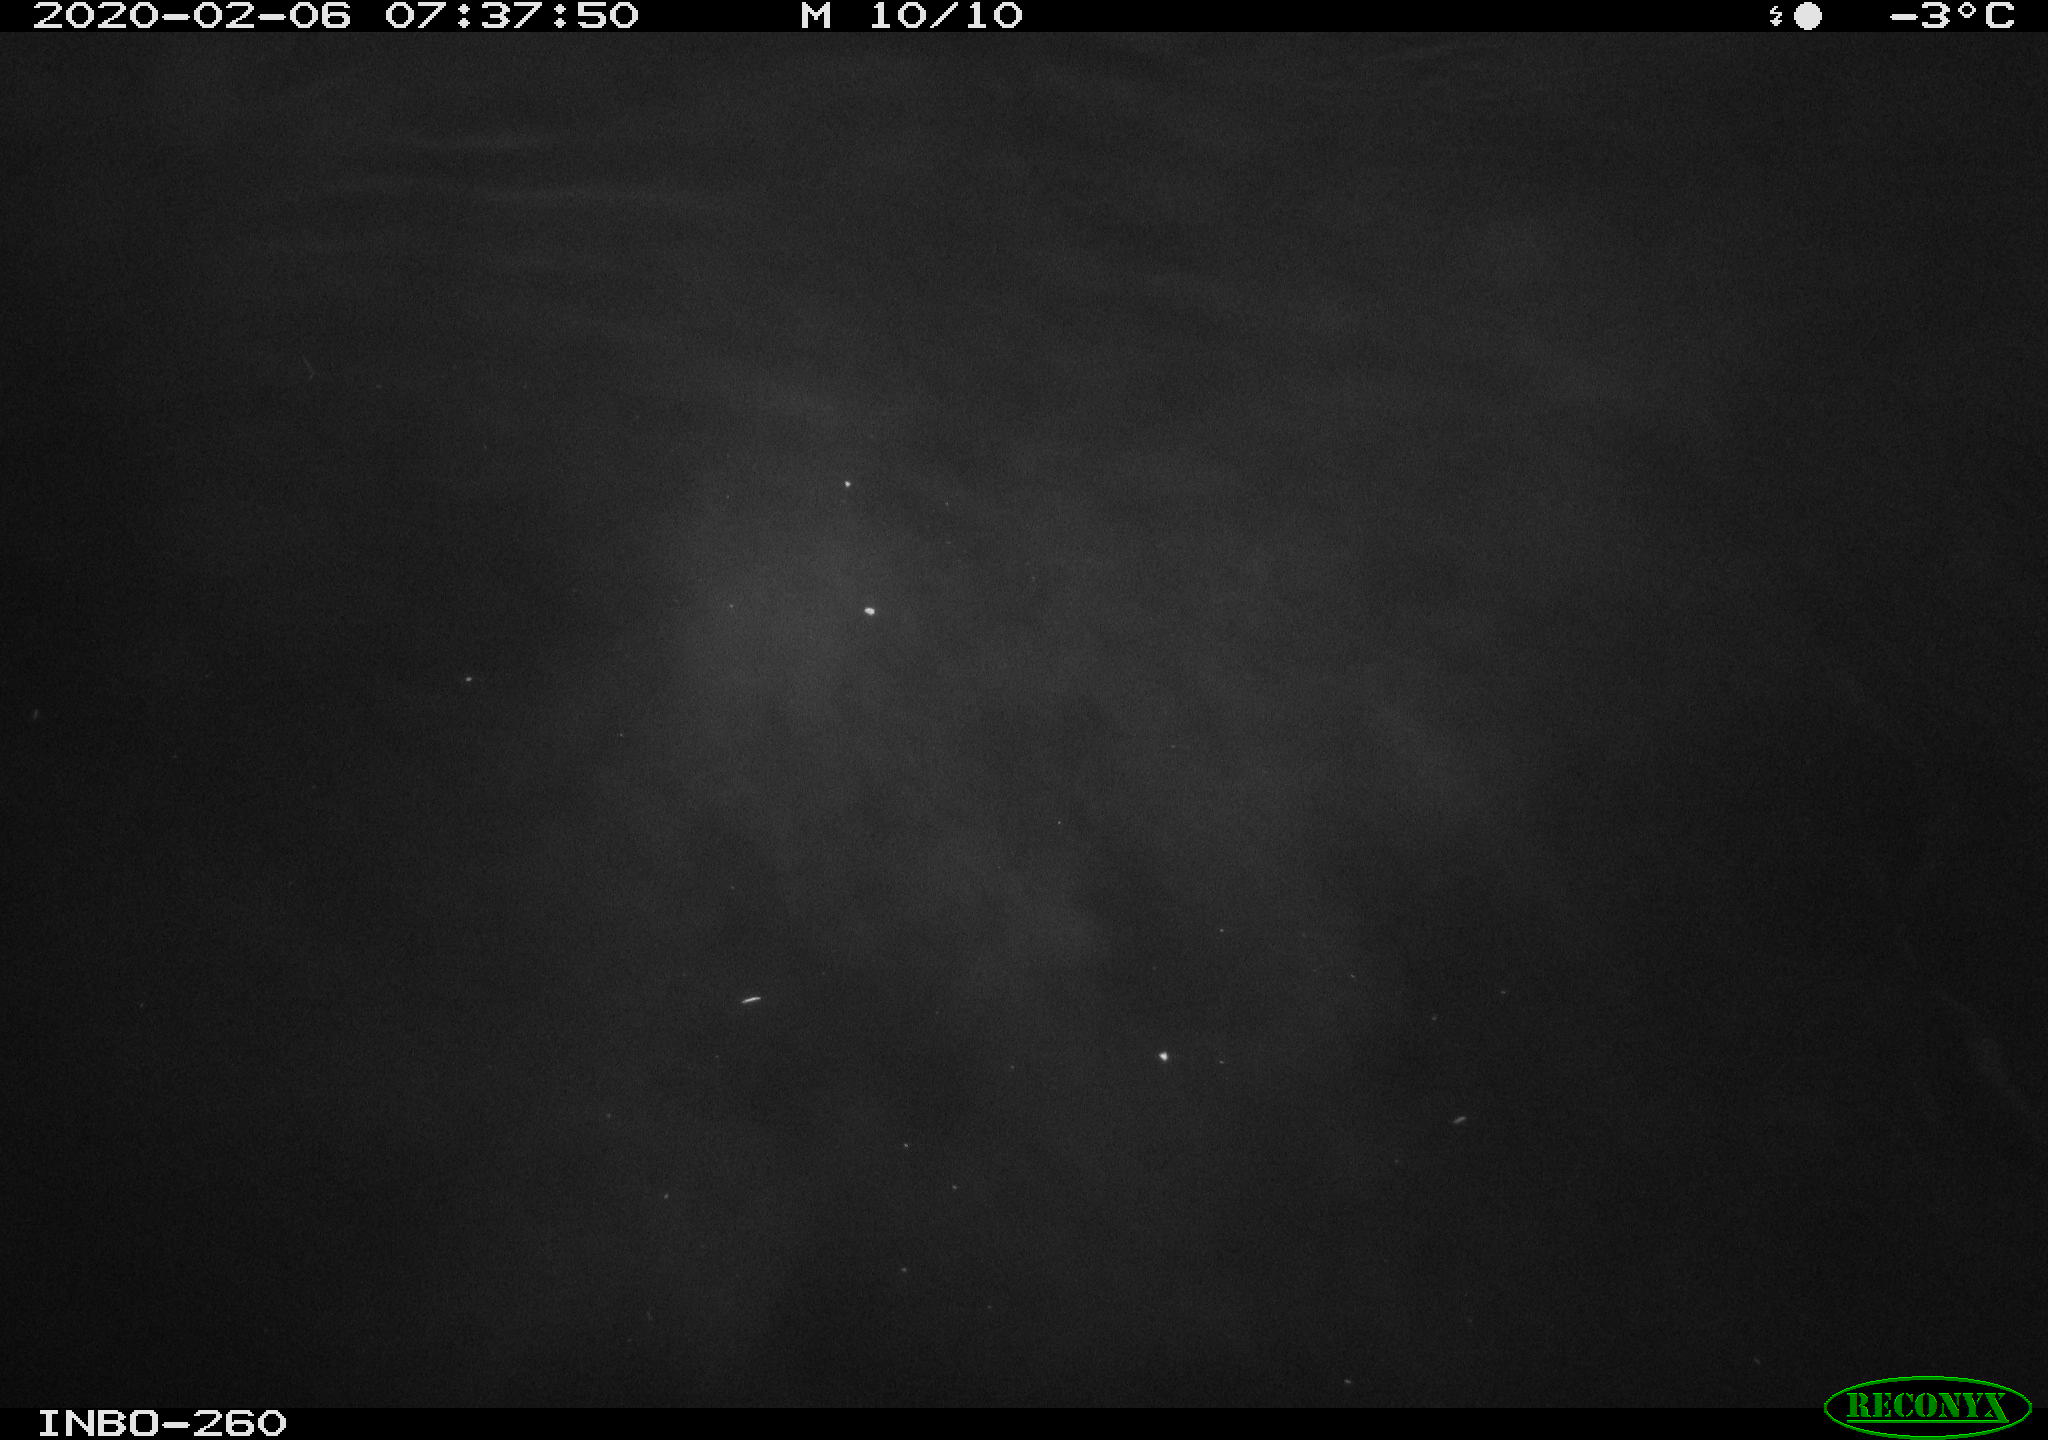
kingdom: Animalia
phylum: Chordata
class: Aves
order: Anseriformes
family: Anatidae
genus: Anas
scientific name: Anas platyrhynchos
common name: Mallard
